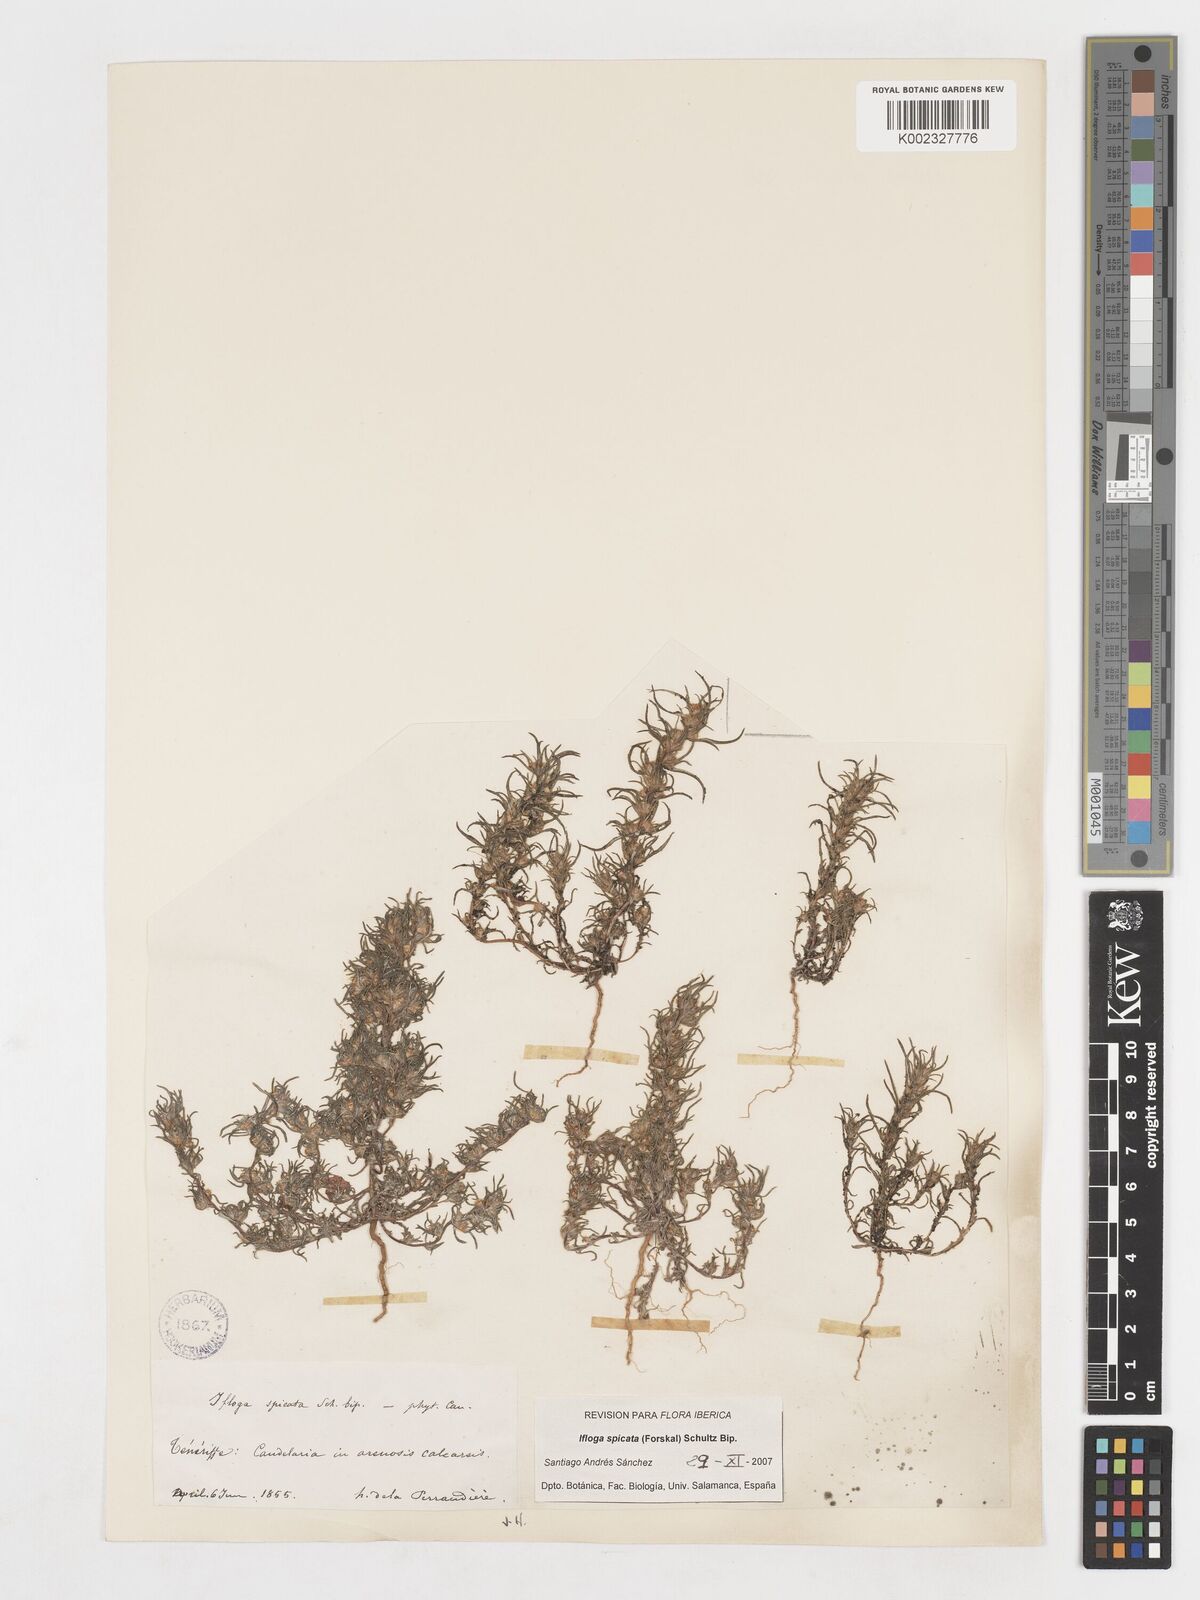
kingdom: Plantae
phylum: Tracheophyta
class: Magnoliopsida
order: Asterales
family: Asteraceae
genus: Ifloga
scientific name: Ifloga spicata
